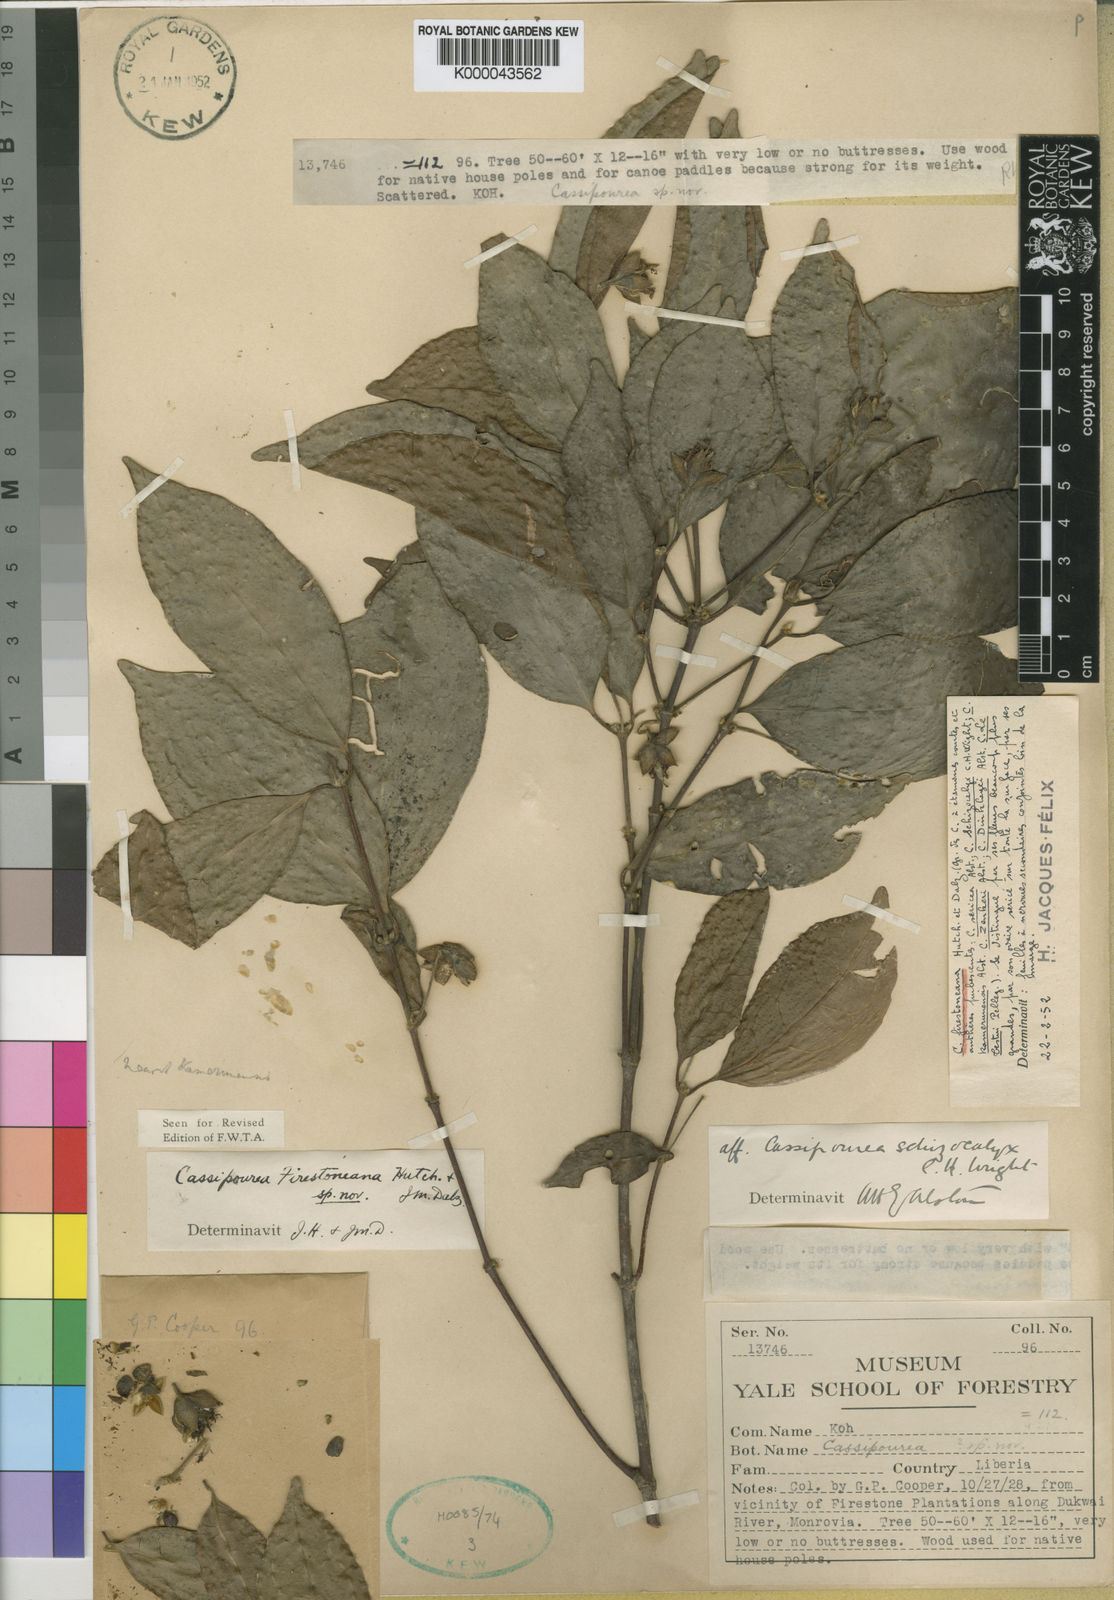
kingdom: Plantae
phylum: Tracheophyta
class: Magnoliopsida
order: Malpighiales
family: Rhizophoraceae
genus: Cassipourea
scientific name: Cassipourea
